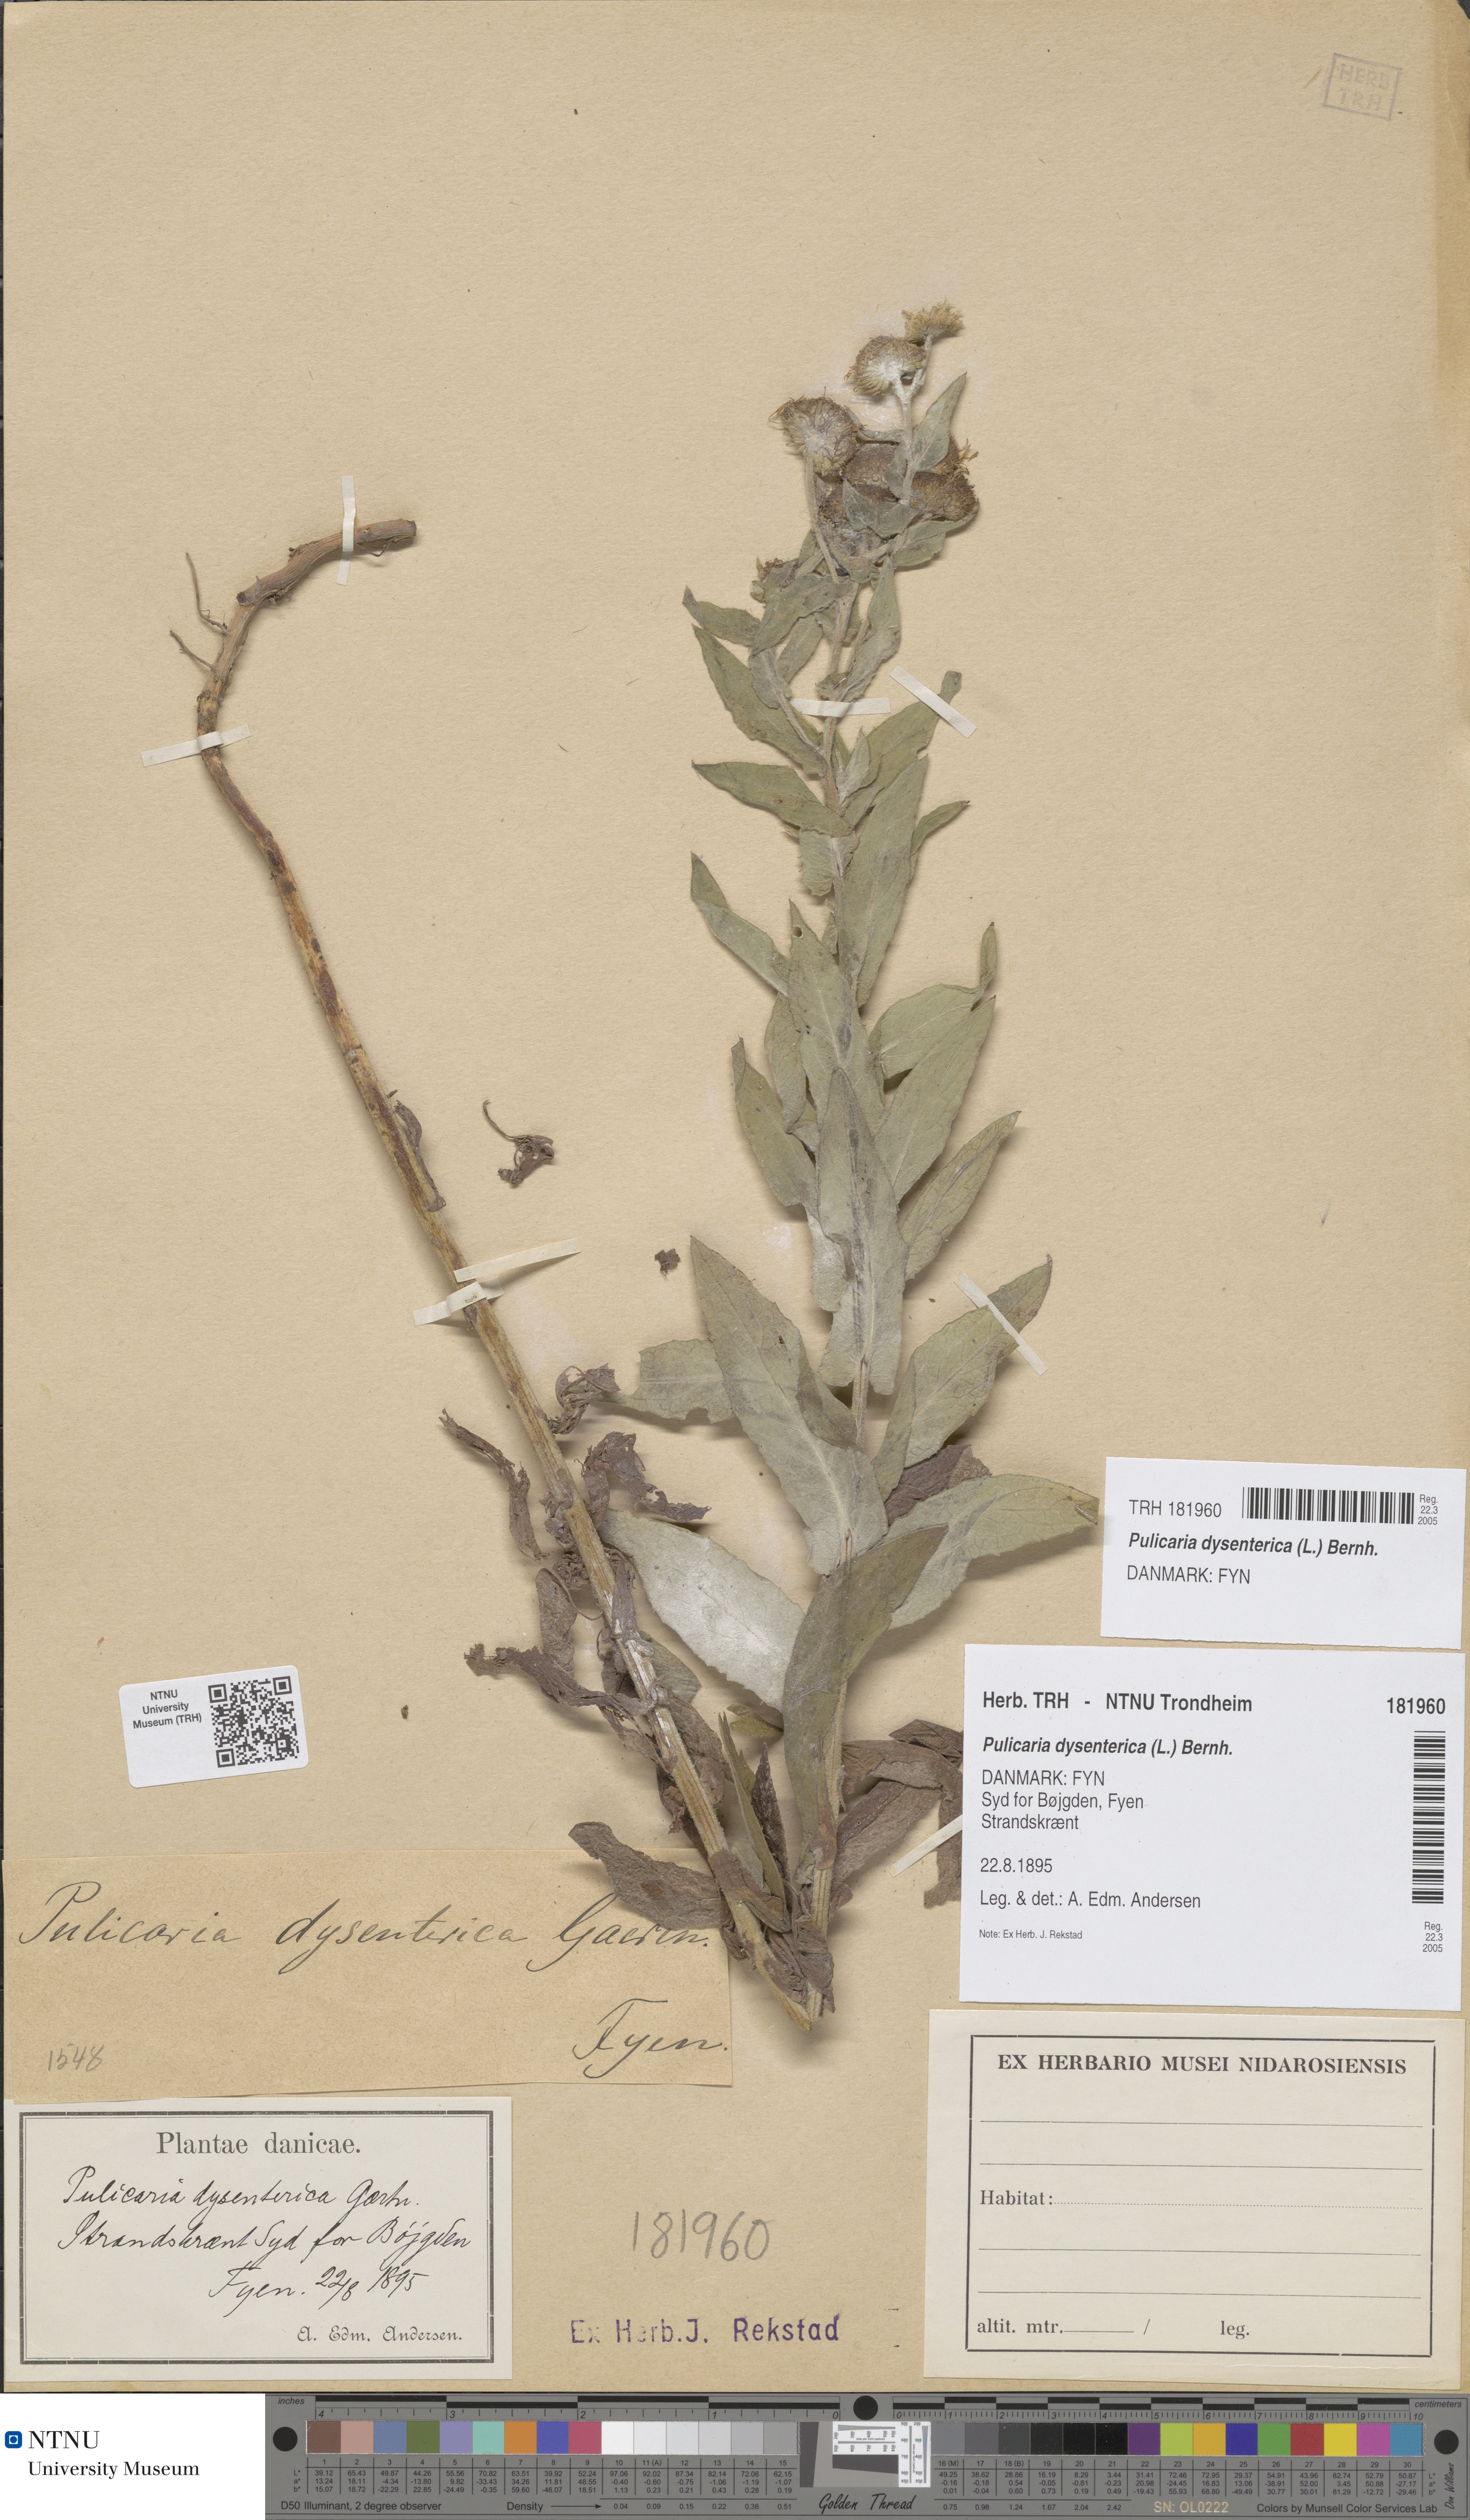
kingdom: Plantae
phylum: Tracheophyta
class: Magnoliopsida
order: Asterales
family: Asteraceae
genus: Pulicaria
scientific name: Pulicaria dysenterica
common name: Common fleabane
